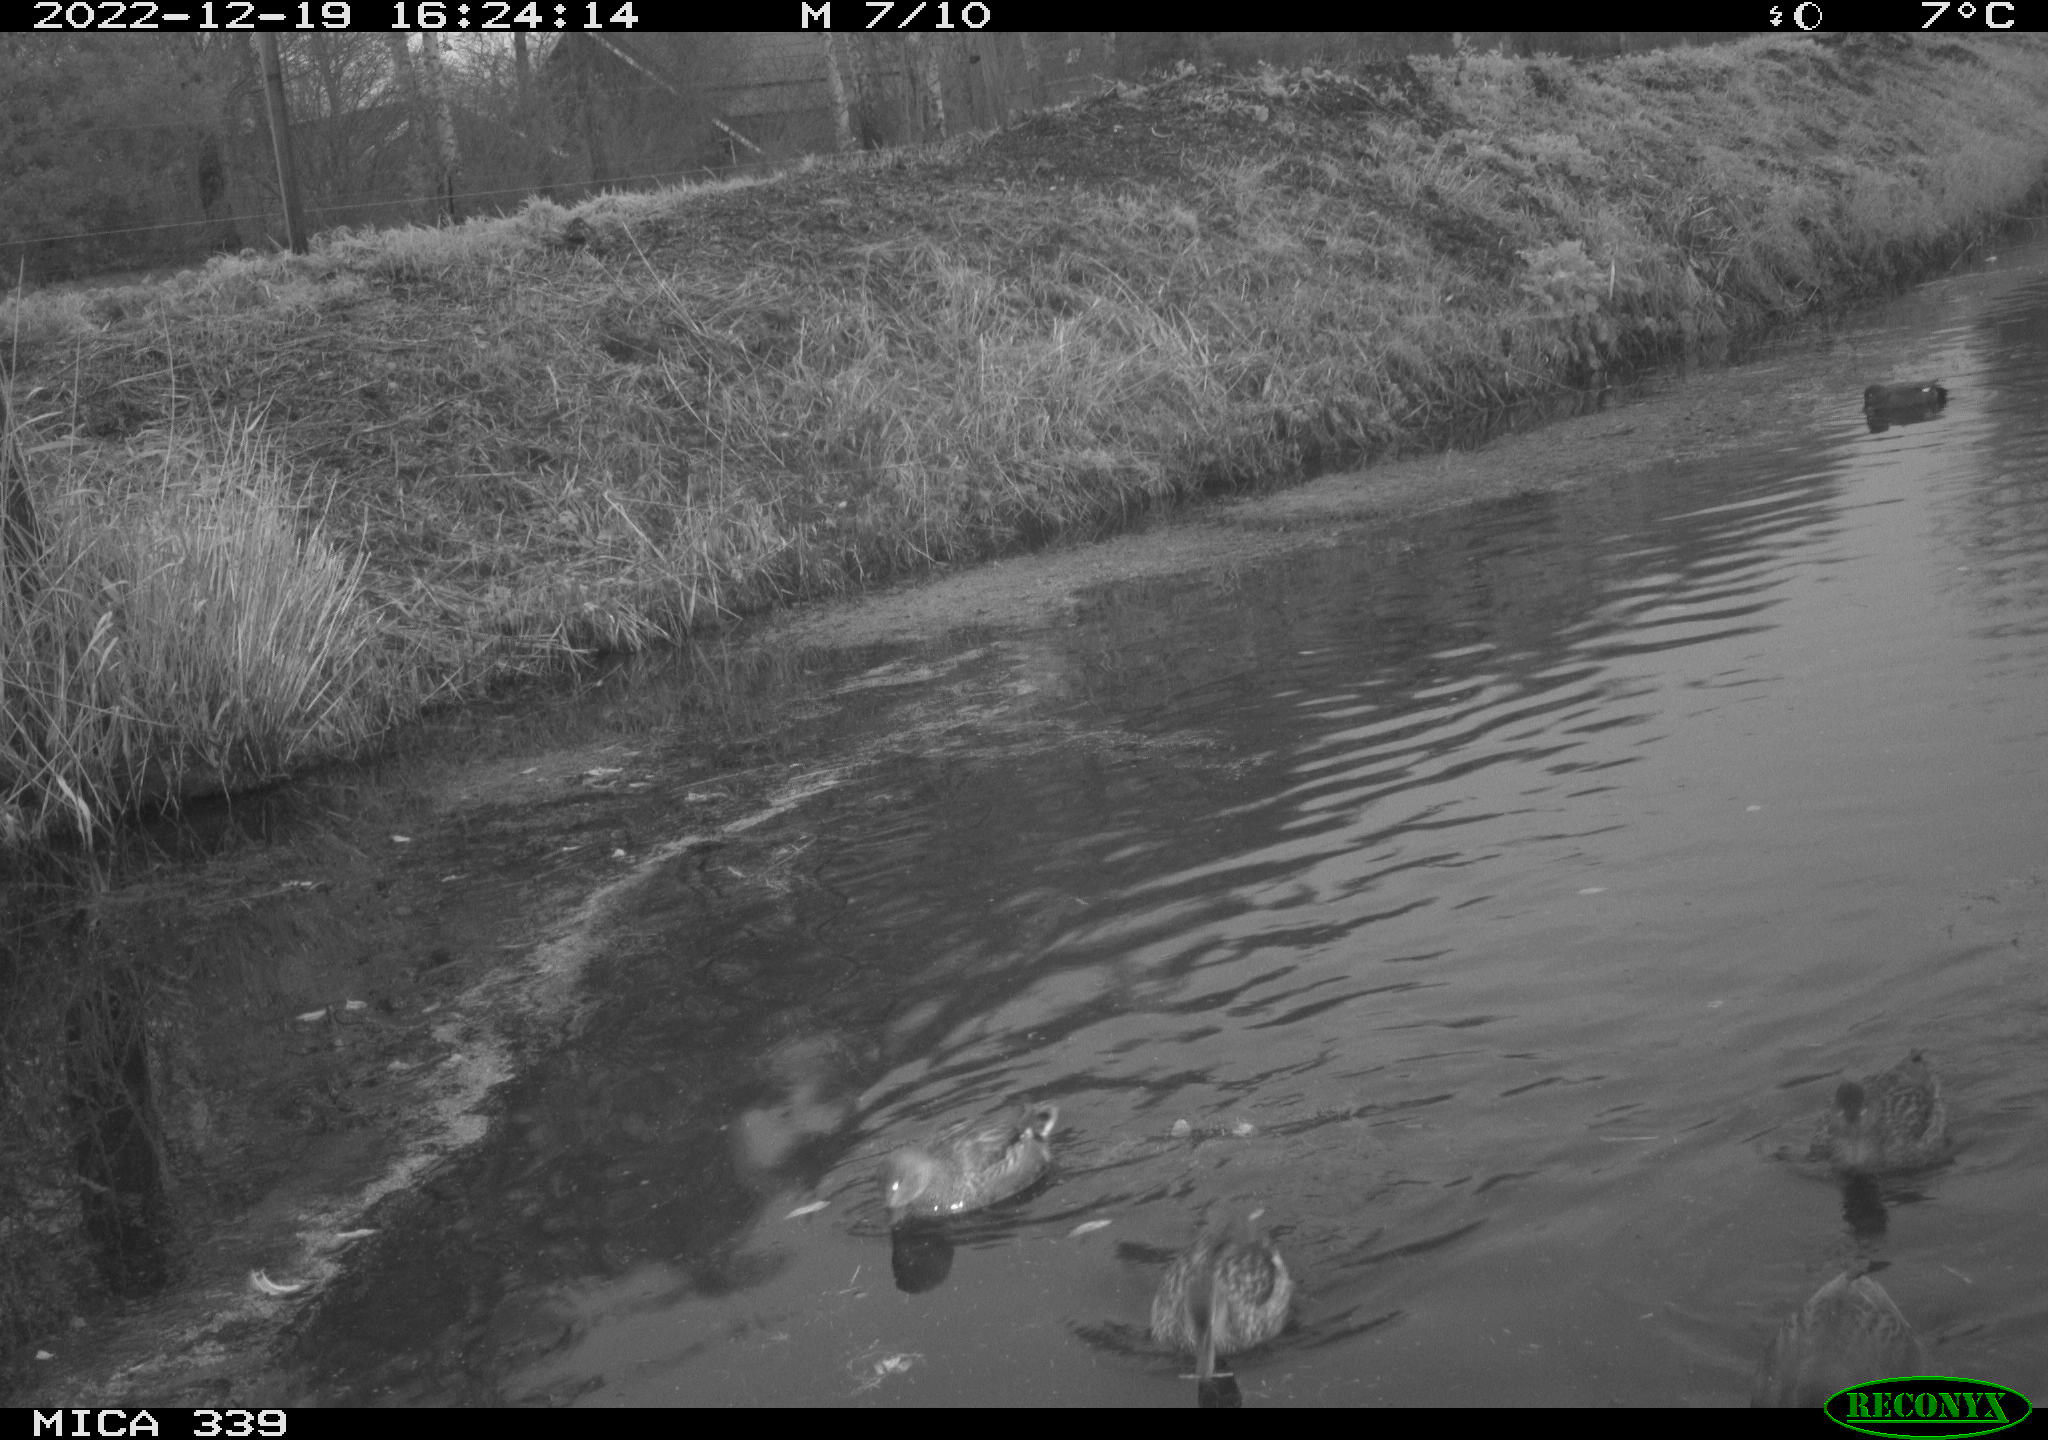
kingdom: Animalia
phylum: Chordata
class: Aves
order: Anseriformes
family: Anatidae
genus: Anas
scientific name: Anas
